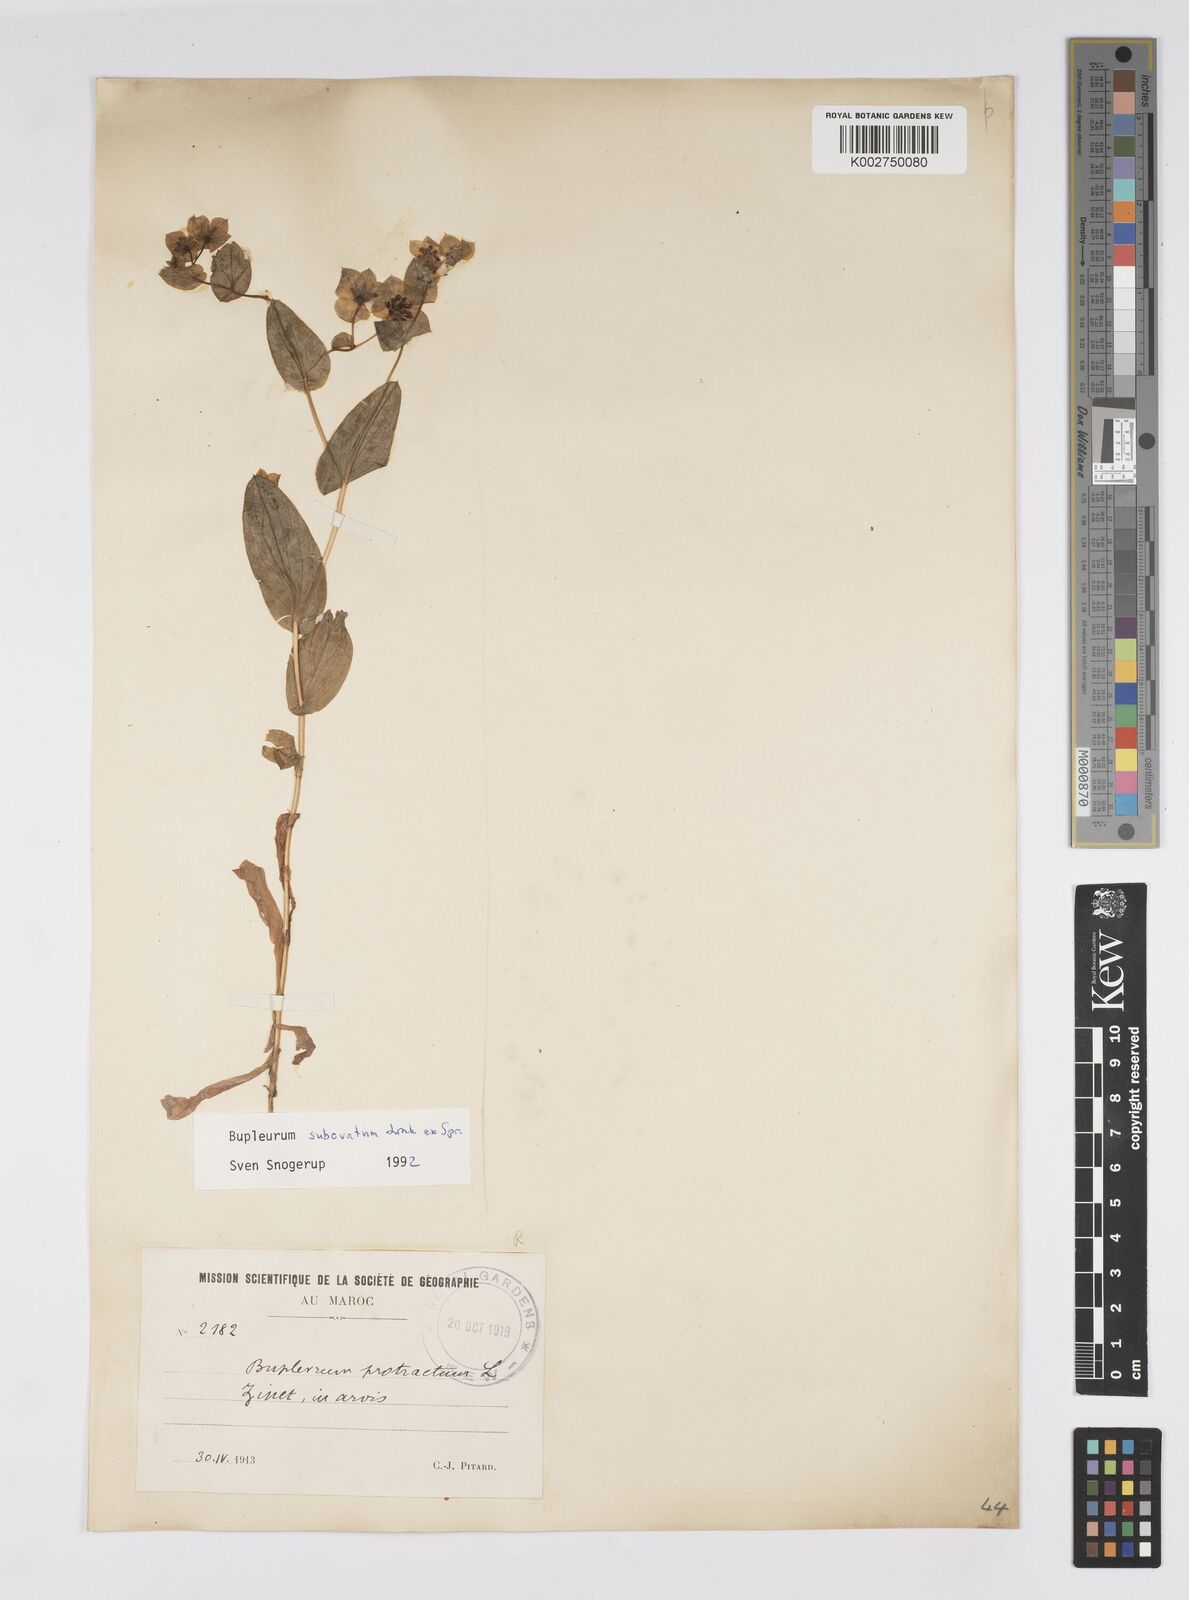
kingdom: Plantae
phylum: Tracheophyta
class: Magnoliopsida
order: Apiales
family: Apiaceae
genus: Bupleurum
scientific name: Bupleurum subovatum
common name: False thorow-wax
